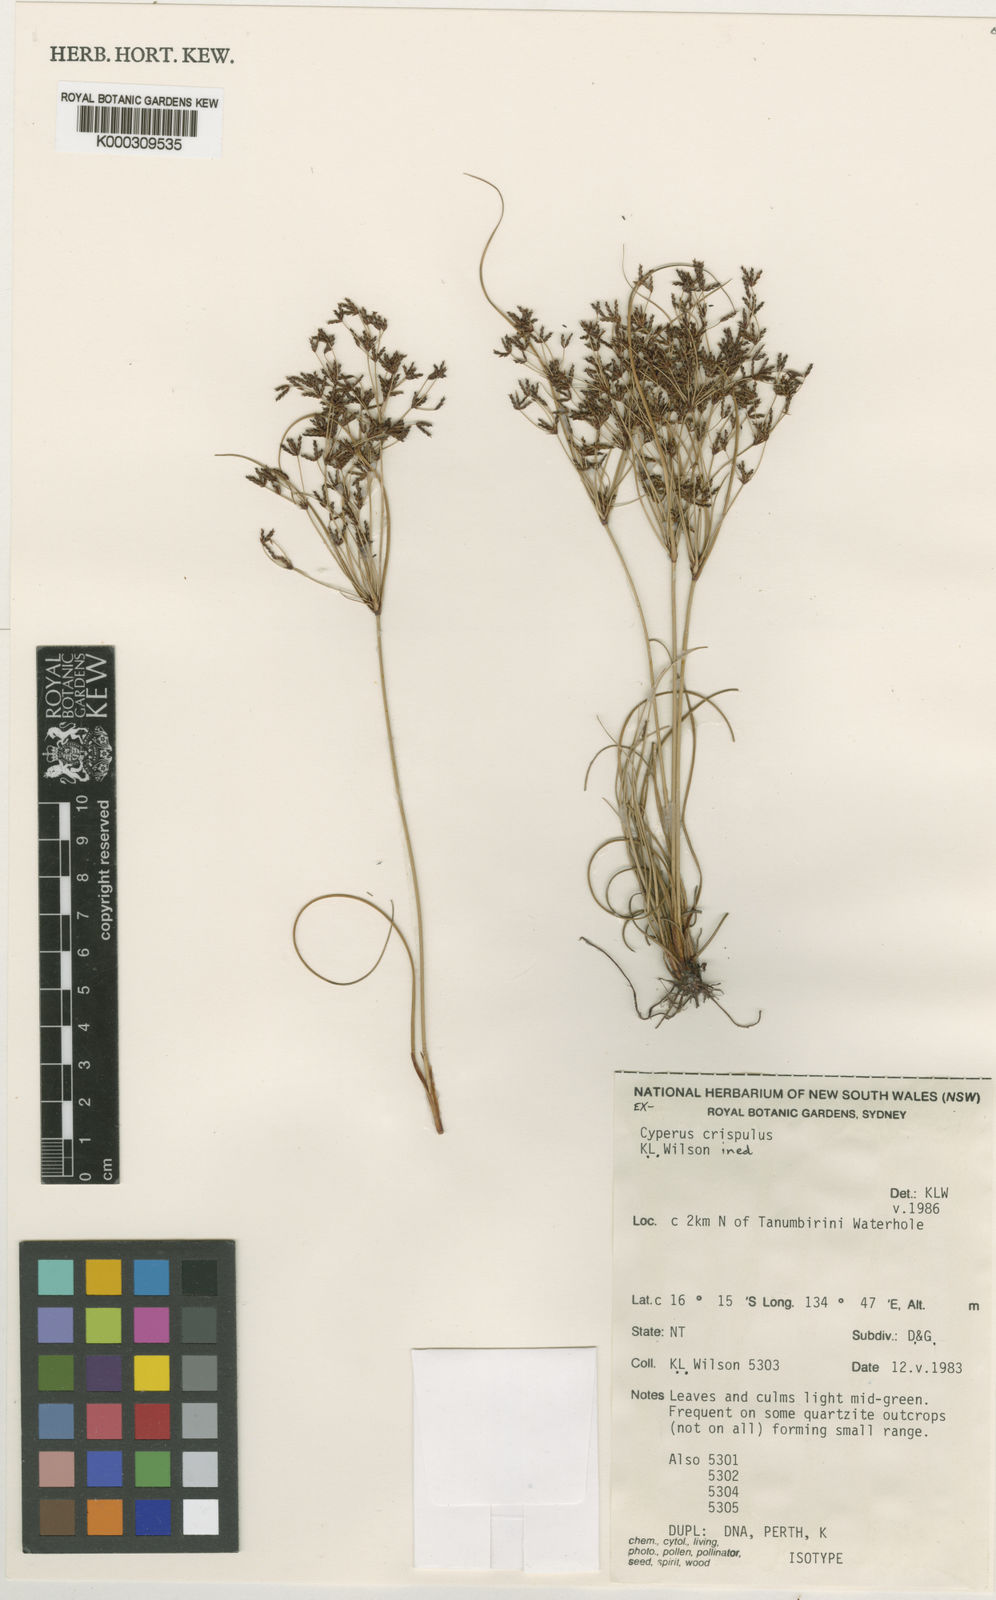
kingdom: Plantae
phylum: Tracheophyta
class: Liliopsida
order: Poales
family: Cyperaceae
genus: Cyperus
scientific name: Cyperus crispulus
